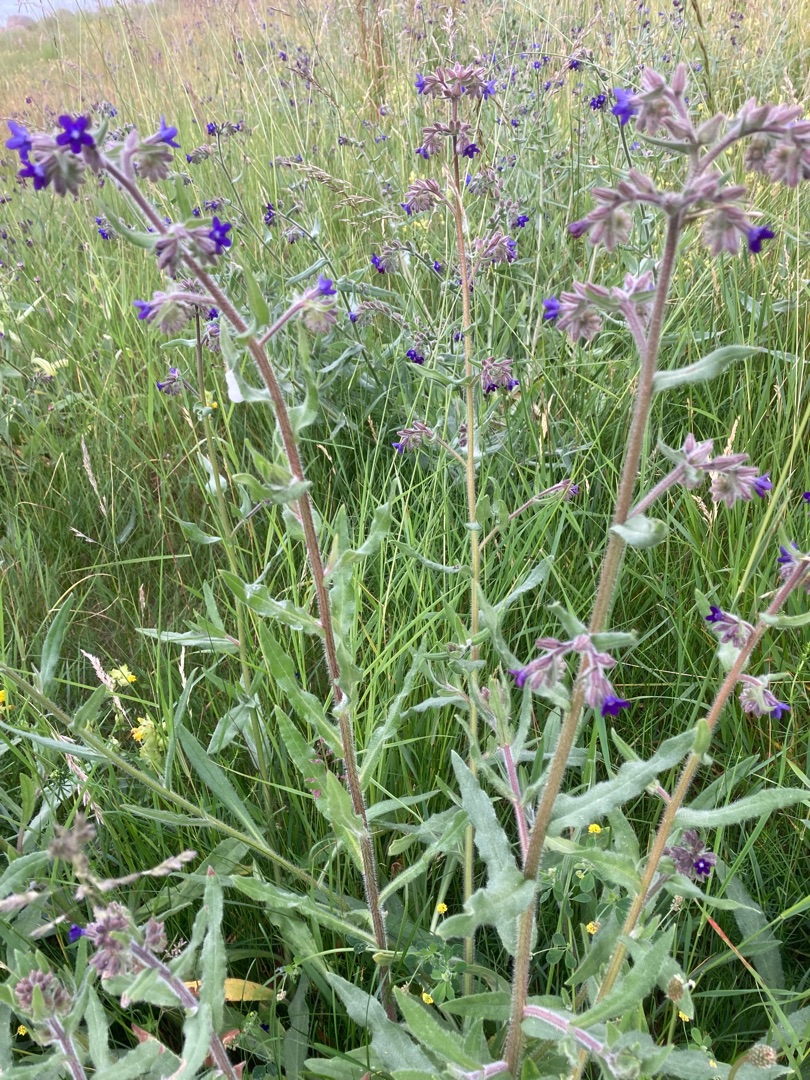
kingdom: Plantae
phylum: Tracheophyta
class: Magnoliopsida
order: Boraginales
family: Boraginaceae
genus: Anchusa
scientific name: Anchusa officinalis
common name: Læge-oksetunge
